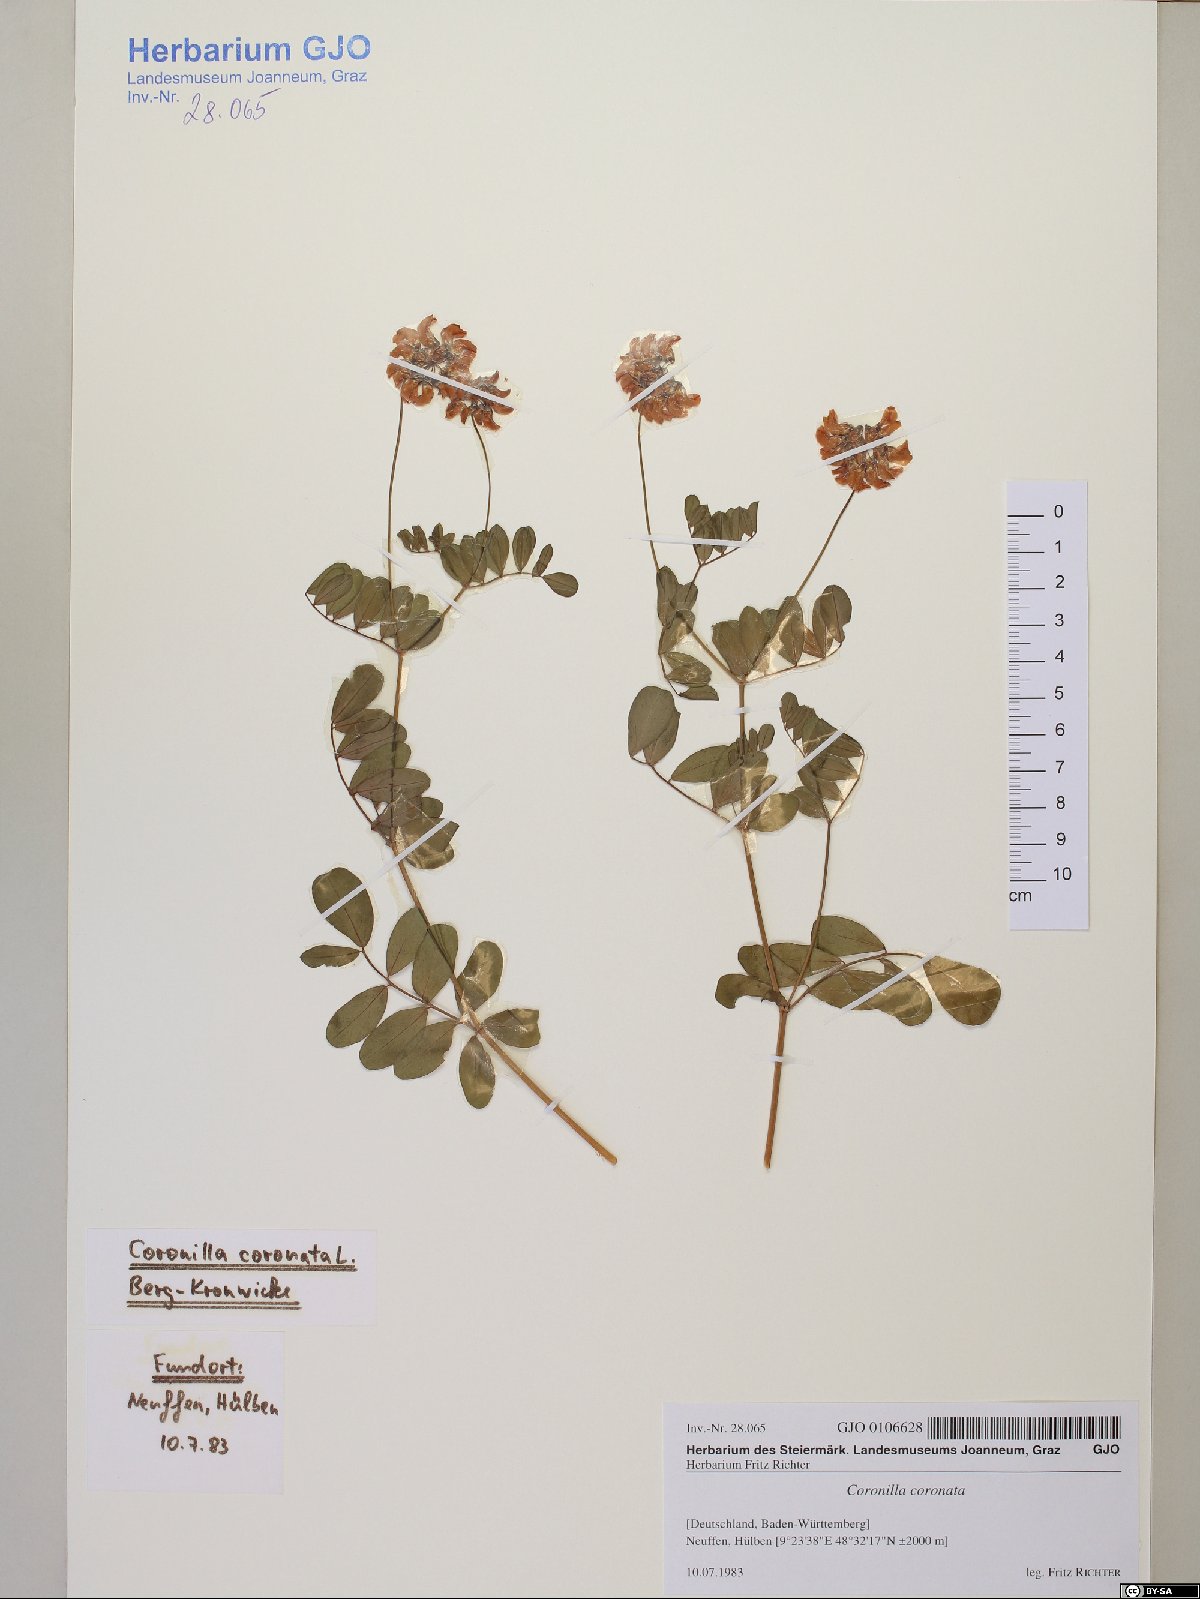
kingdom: Plantae
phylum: Tracheophyta
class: Magnoliopsida
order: Fabales
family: Fabaceae
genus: Coronilla
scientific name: Coronilla coronata
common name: Scorpion-vetch
